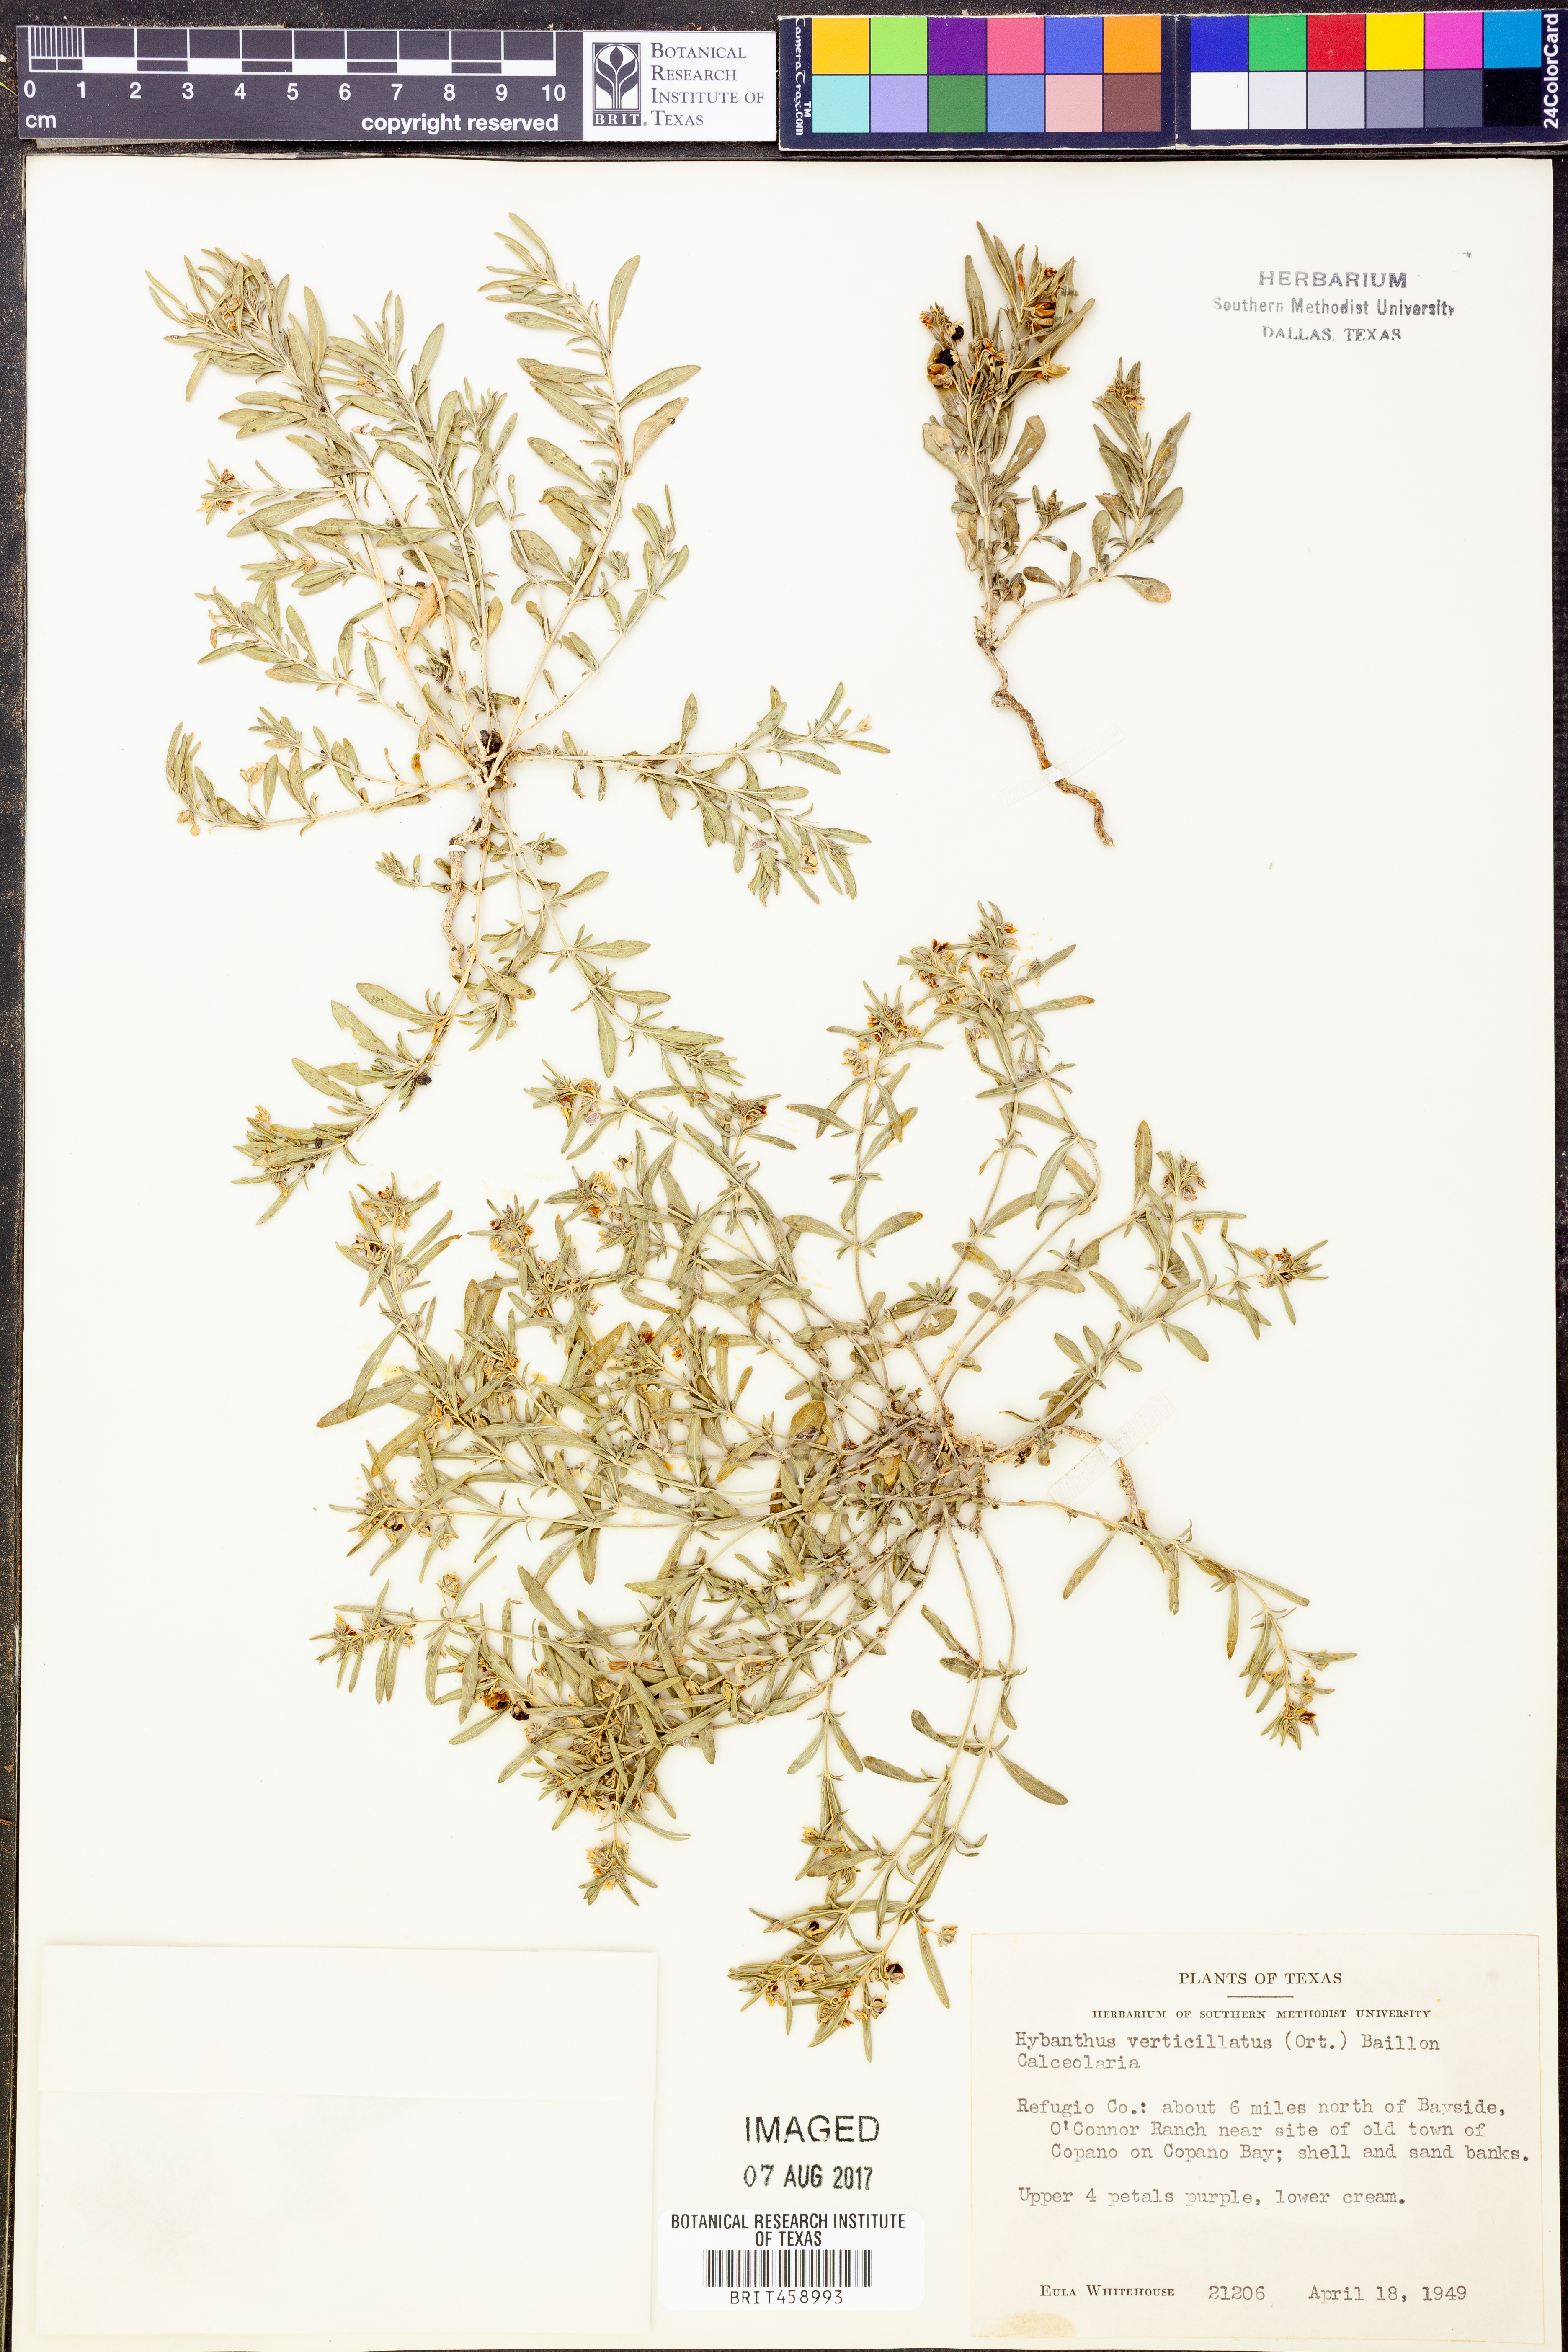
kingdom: Plantae
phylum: Tracheophyta
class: Magnoliopsida
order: Malpighiales
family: Violaceae
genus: Pombalia
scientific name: Pombalia verticillata
